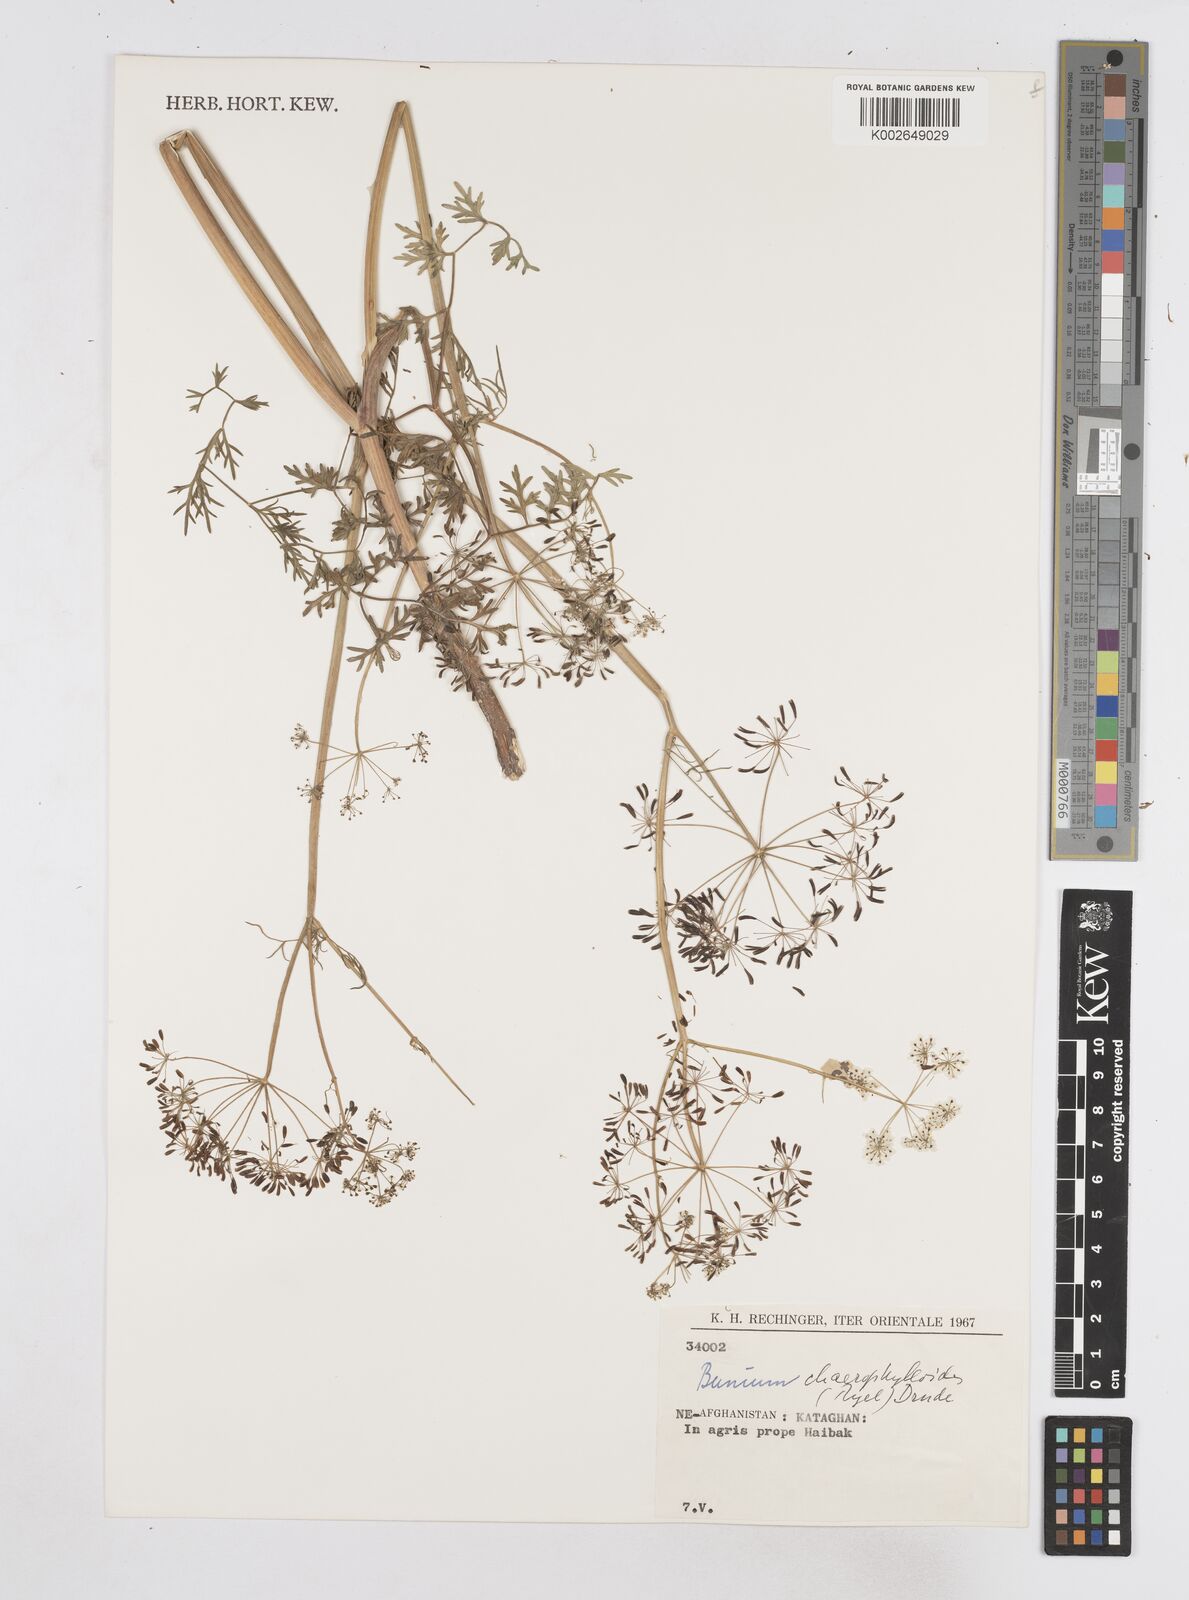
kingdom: Plantae
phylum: Tracheophyta
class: Magnoliopsida
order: Apiales
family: Apiaceae
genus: Elwendia
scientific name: Elwendia chaerophylloides
